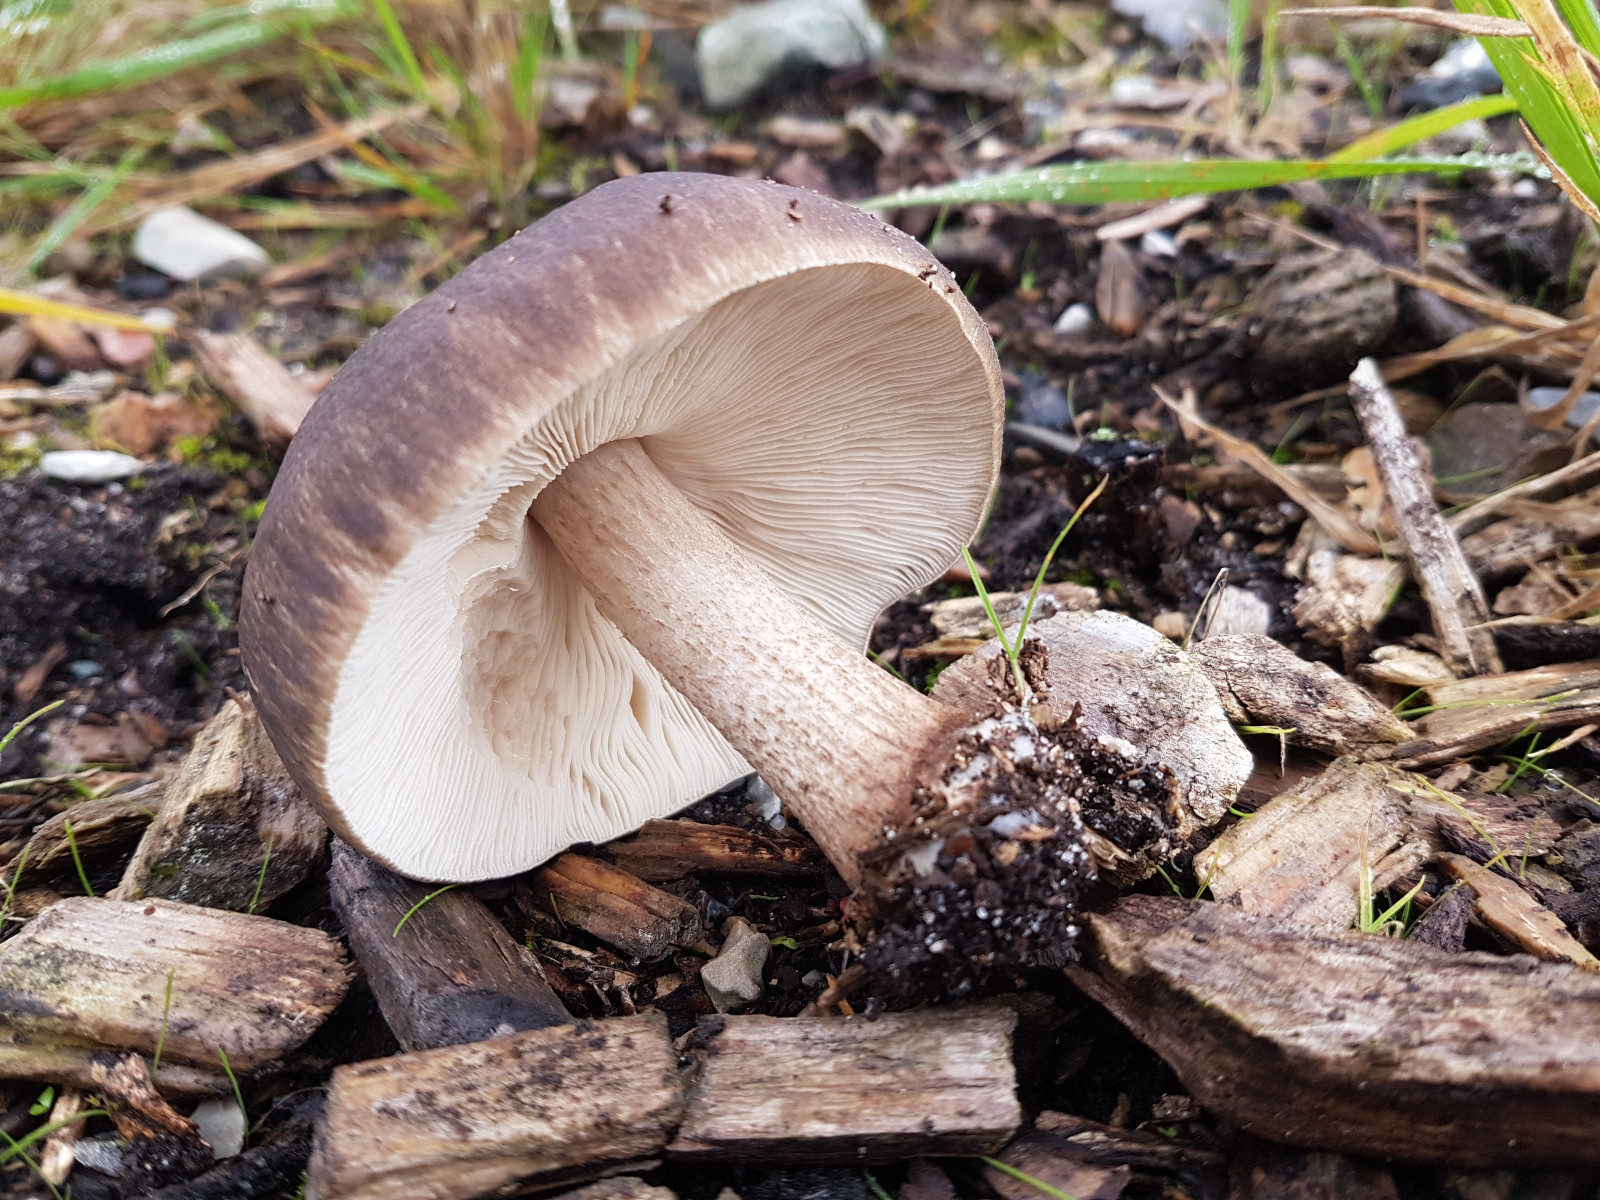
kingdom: Fungi
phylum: Basidiomycota
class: Agaricomycetes
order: Agaricales
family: Pluteaceae
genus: Pluteus
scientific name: Pluteus cervinus
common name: sodfarvet skærmhat
